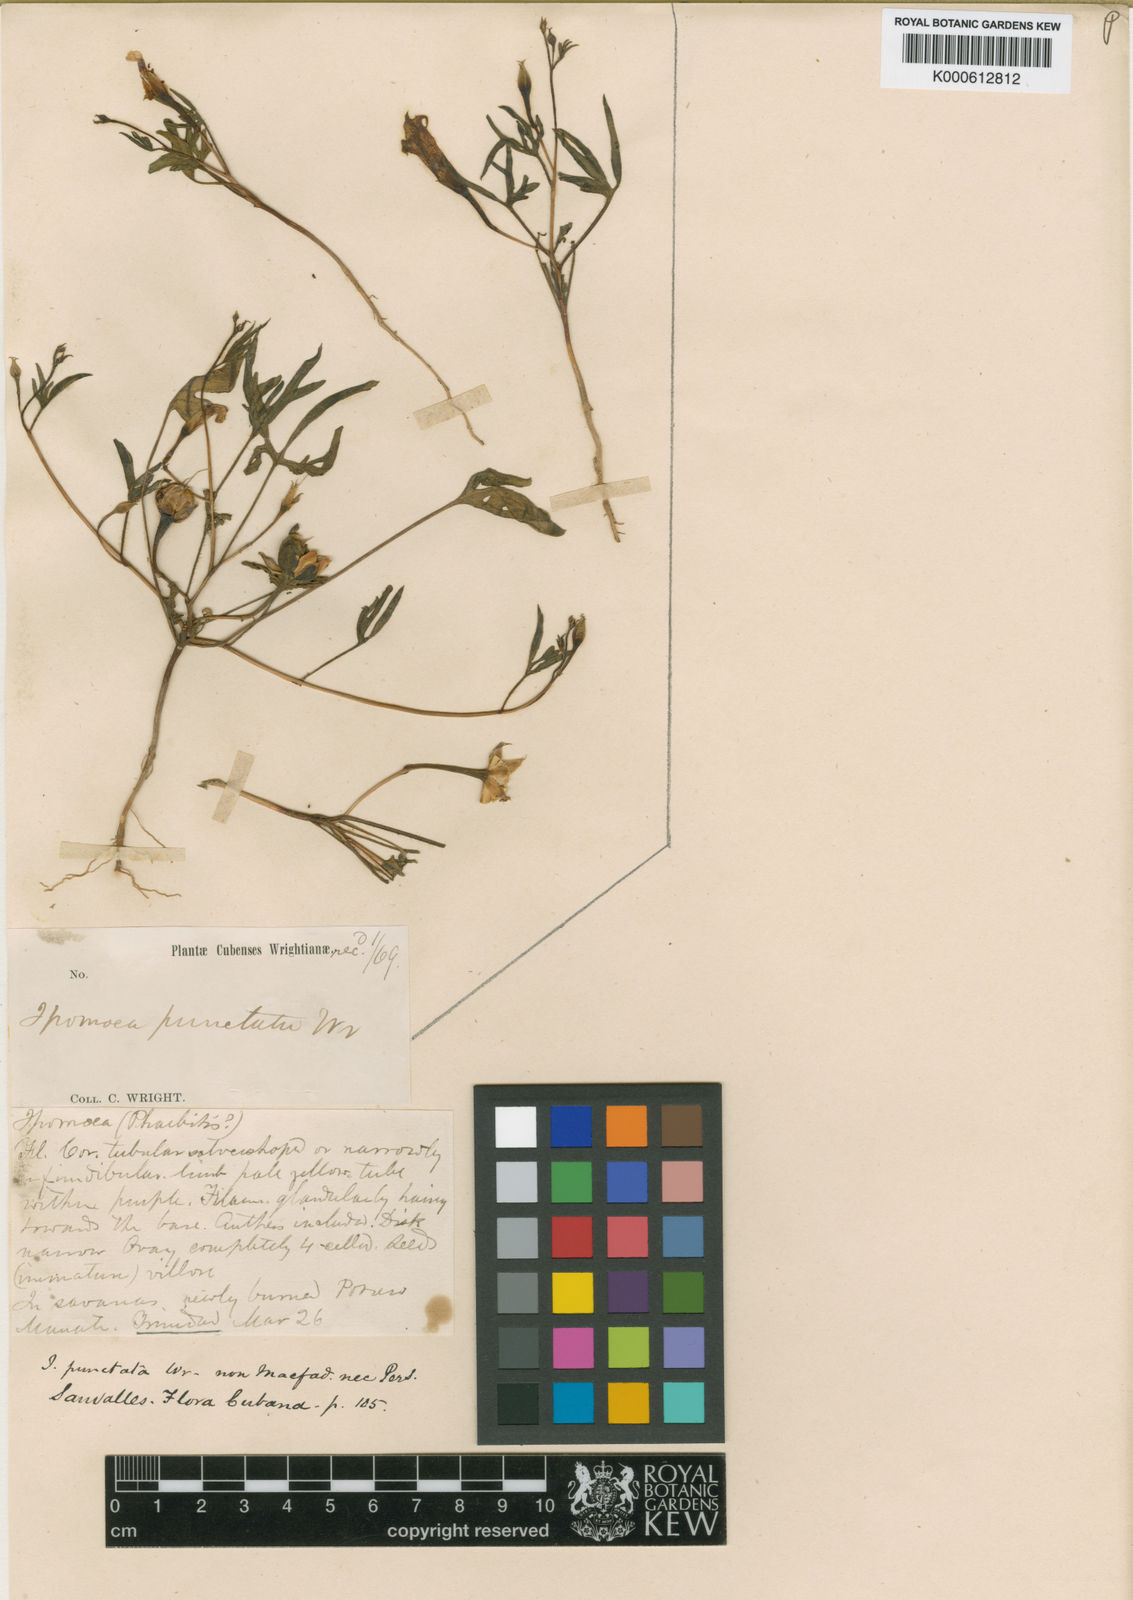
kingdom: Plantae
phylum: Tracheophyta
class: Magnoliopsida
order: Solanales
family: Convolvulaceae
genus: Ipomoea
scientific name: Ipomoea longeramosa
